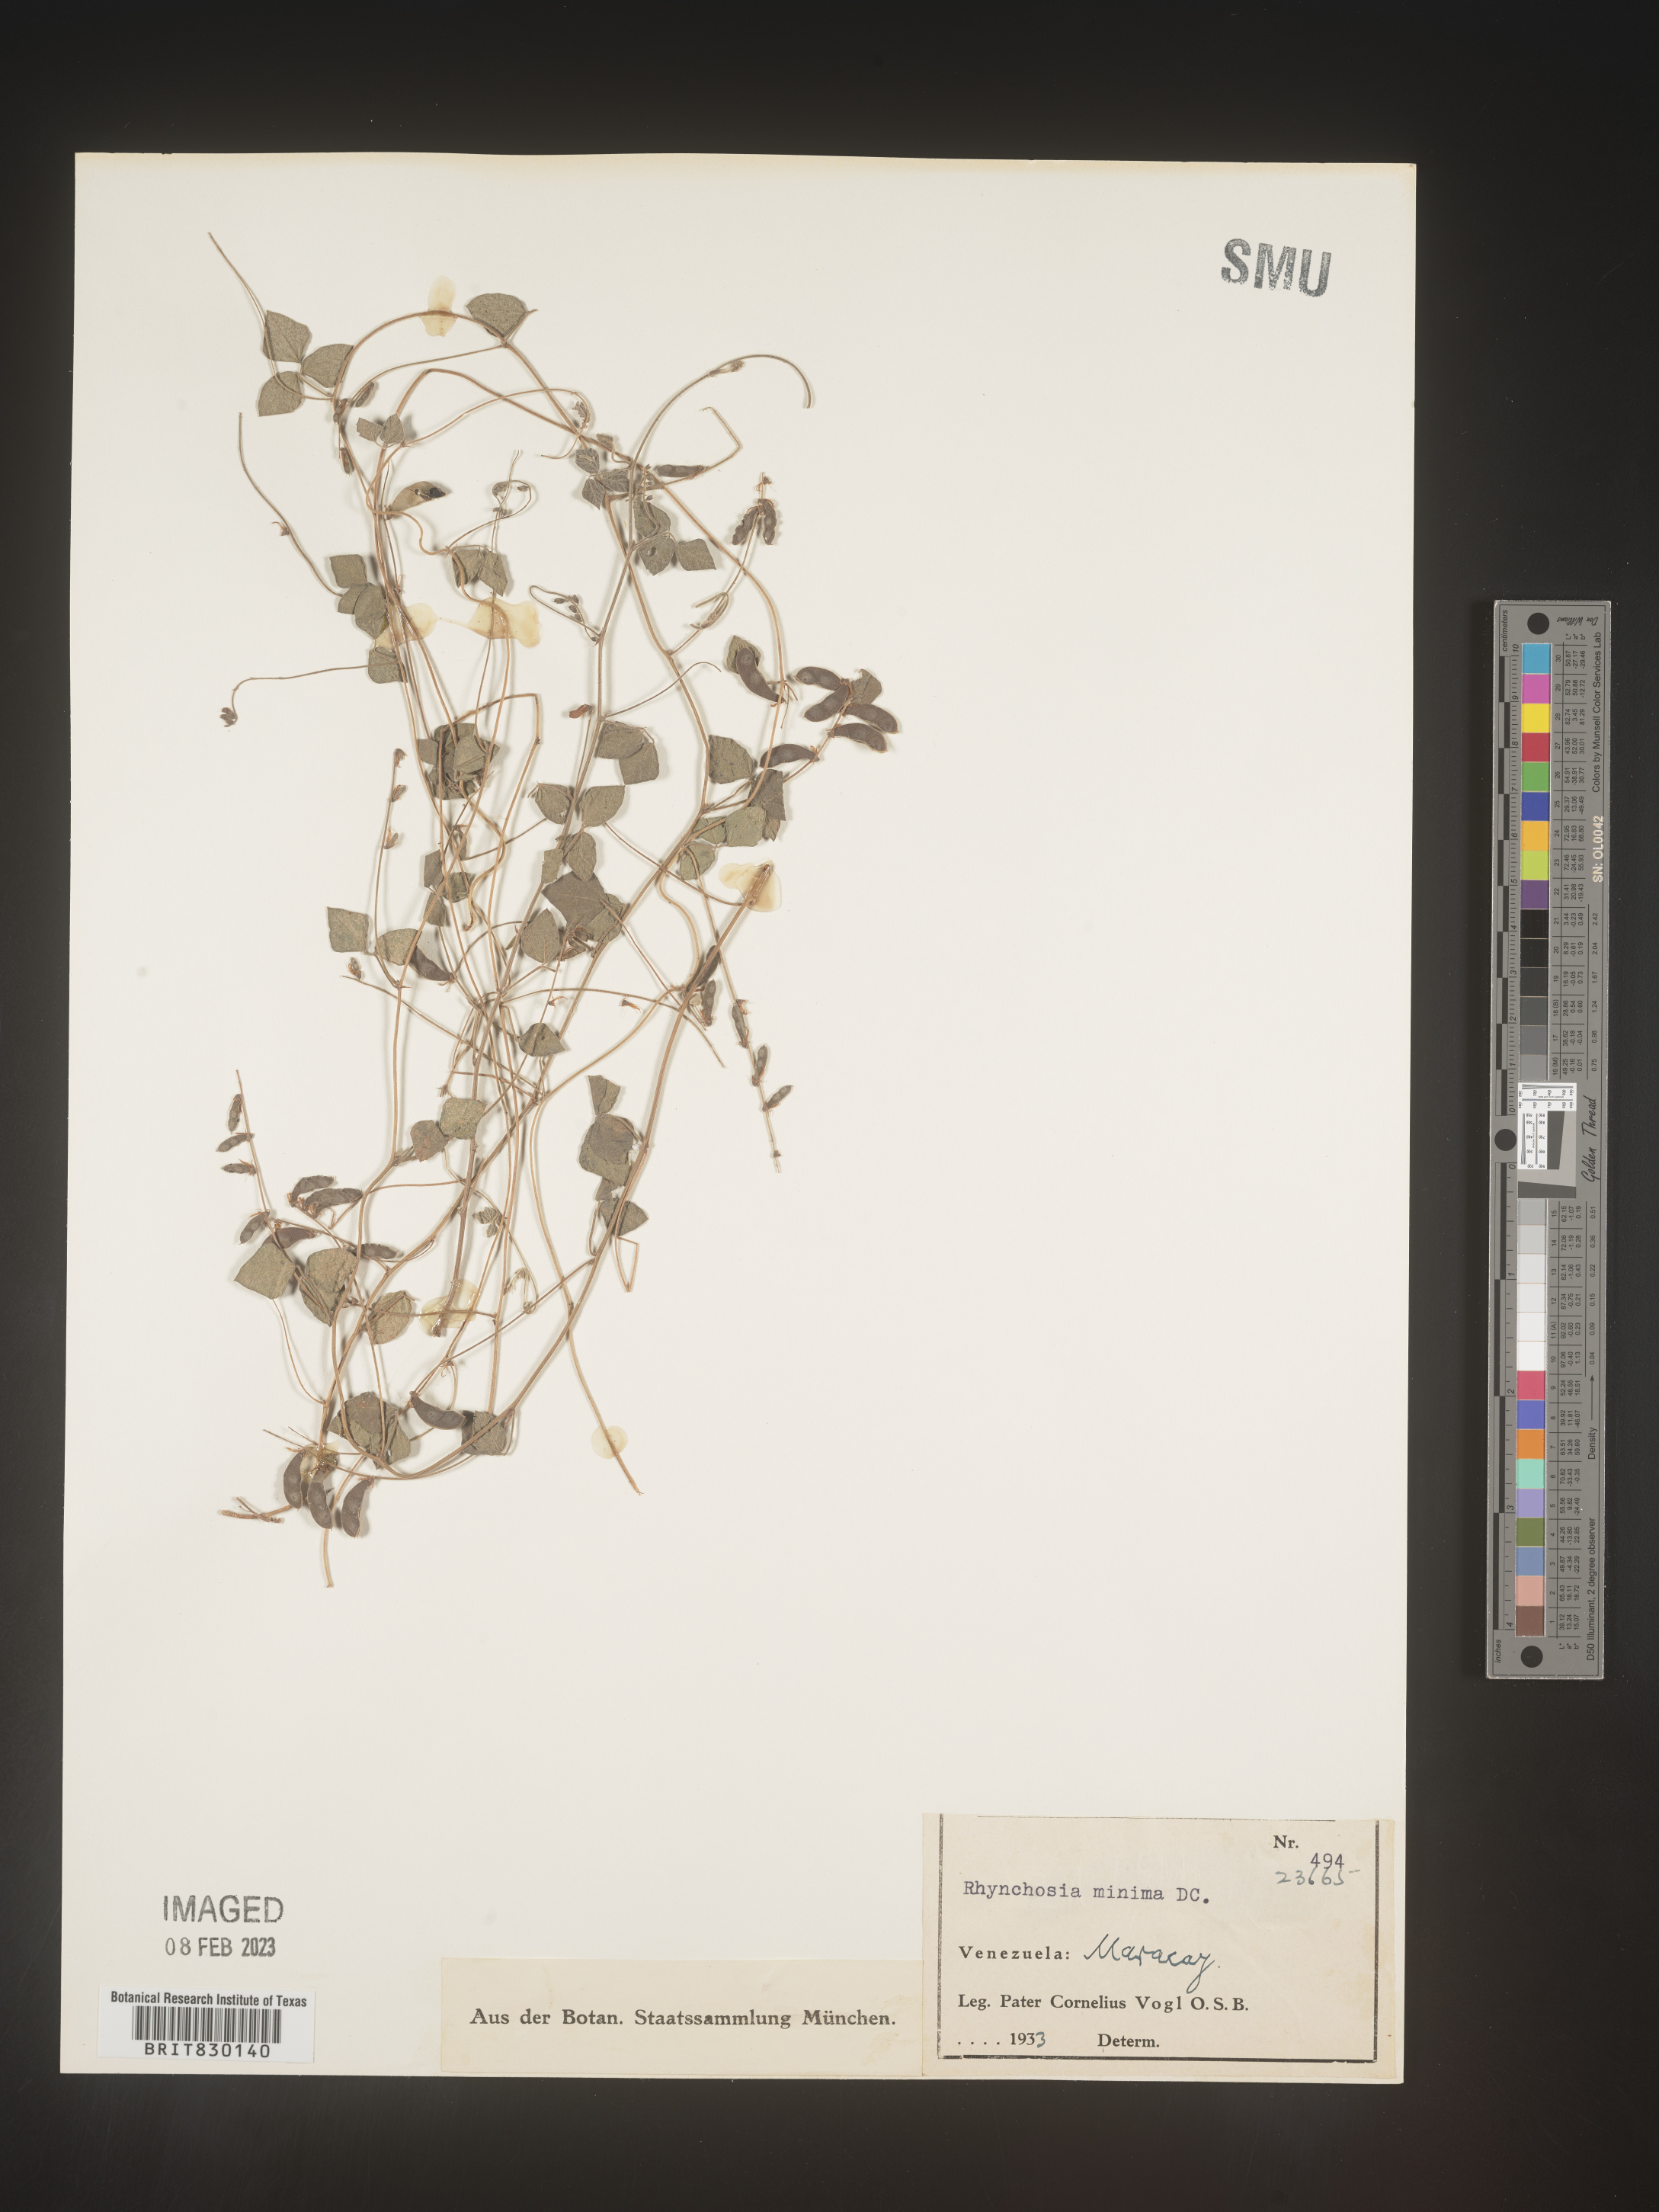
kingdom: Plantae
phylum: Tracheophyta
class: Magnoliopsida
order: Fabales
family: Fabaceae
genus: Rhynchosia
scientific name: Rhynchosia
